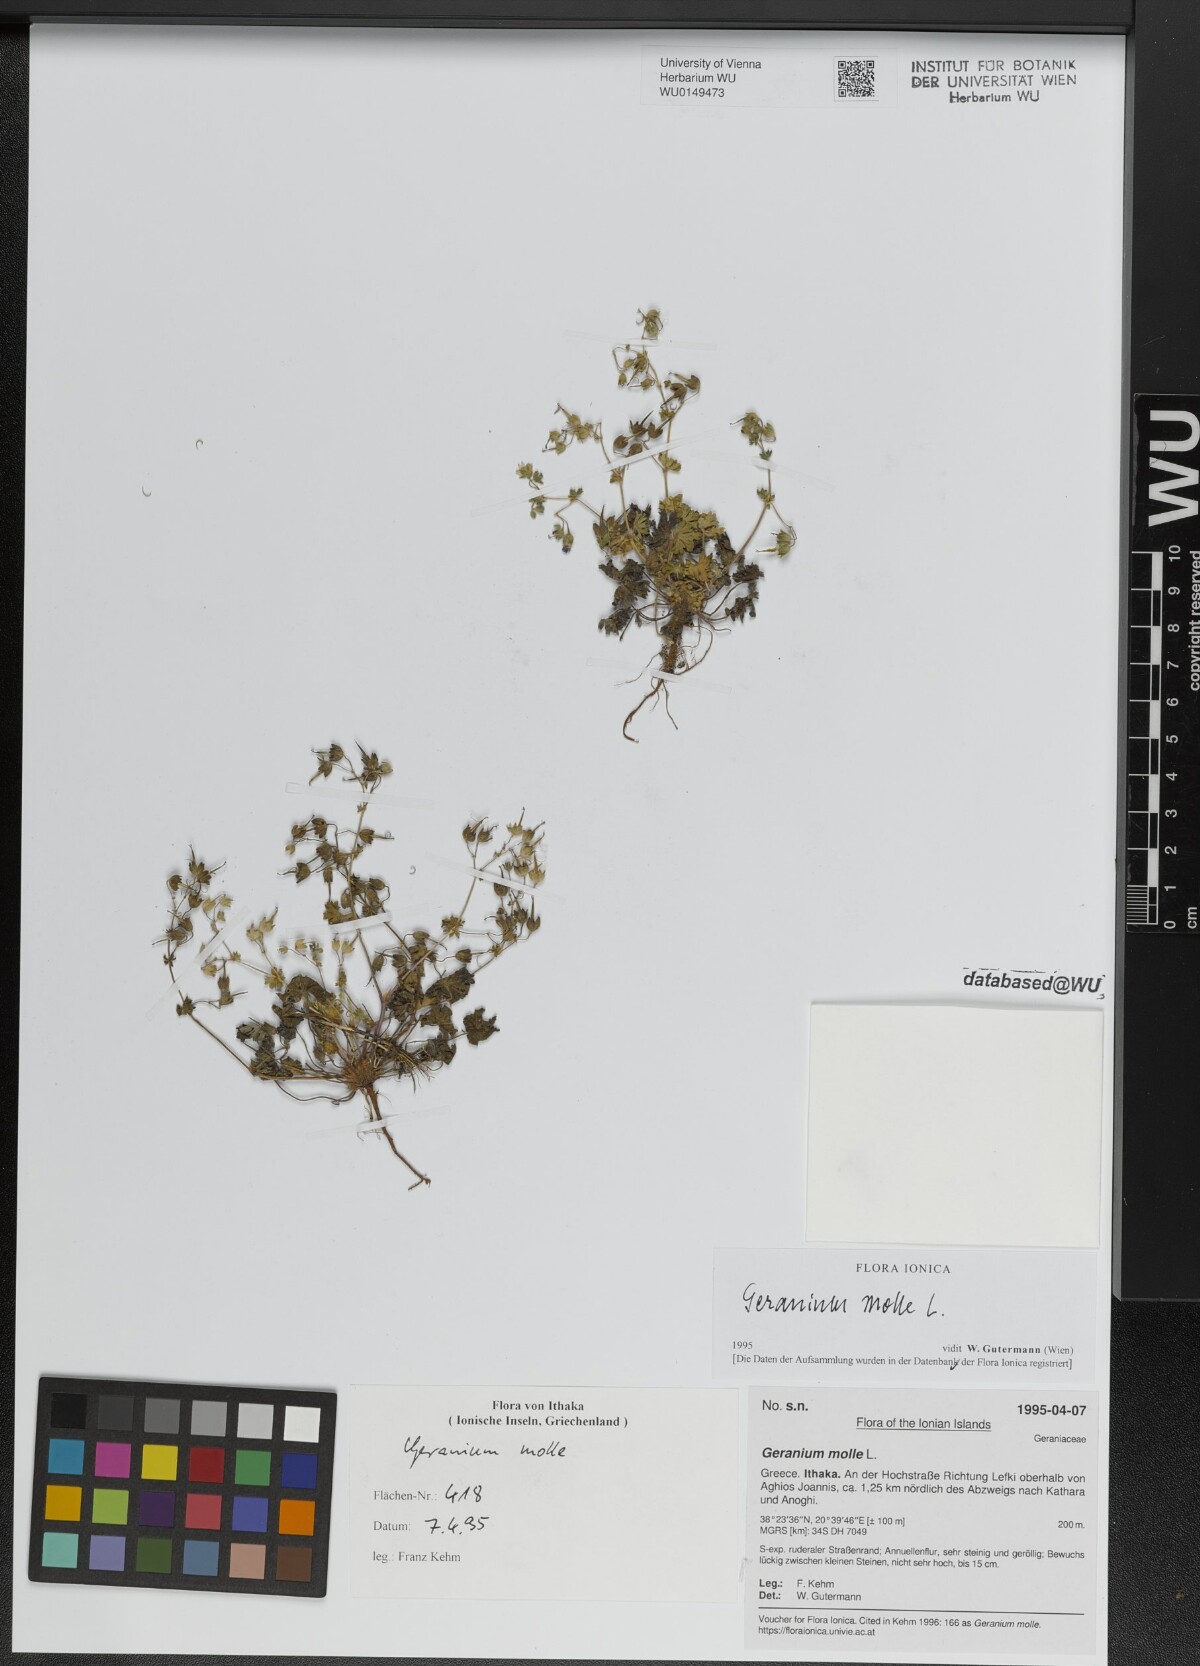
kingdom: Plantae
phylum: Tracheophyta
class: Magnoliopsida
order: Geraniales
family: Geraniaceae
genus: Geranium
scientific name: Geranium molle
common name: Dove's-foot crane's-bill
